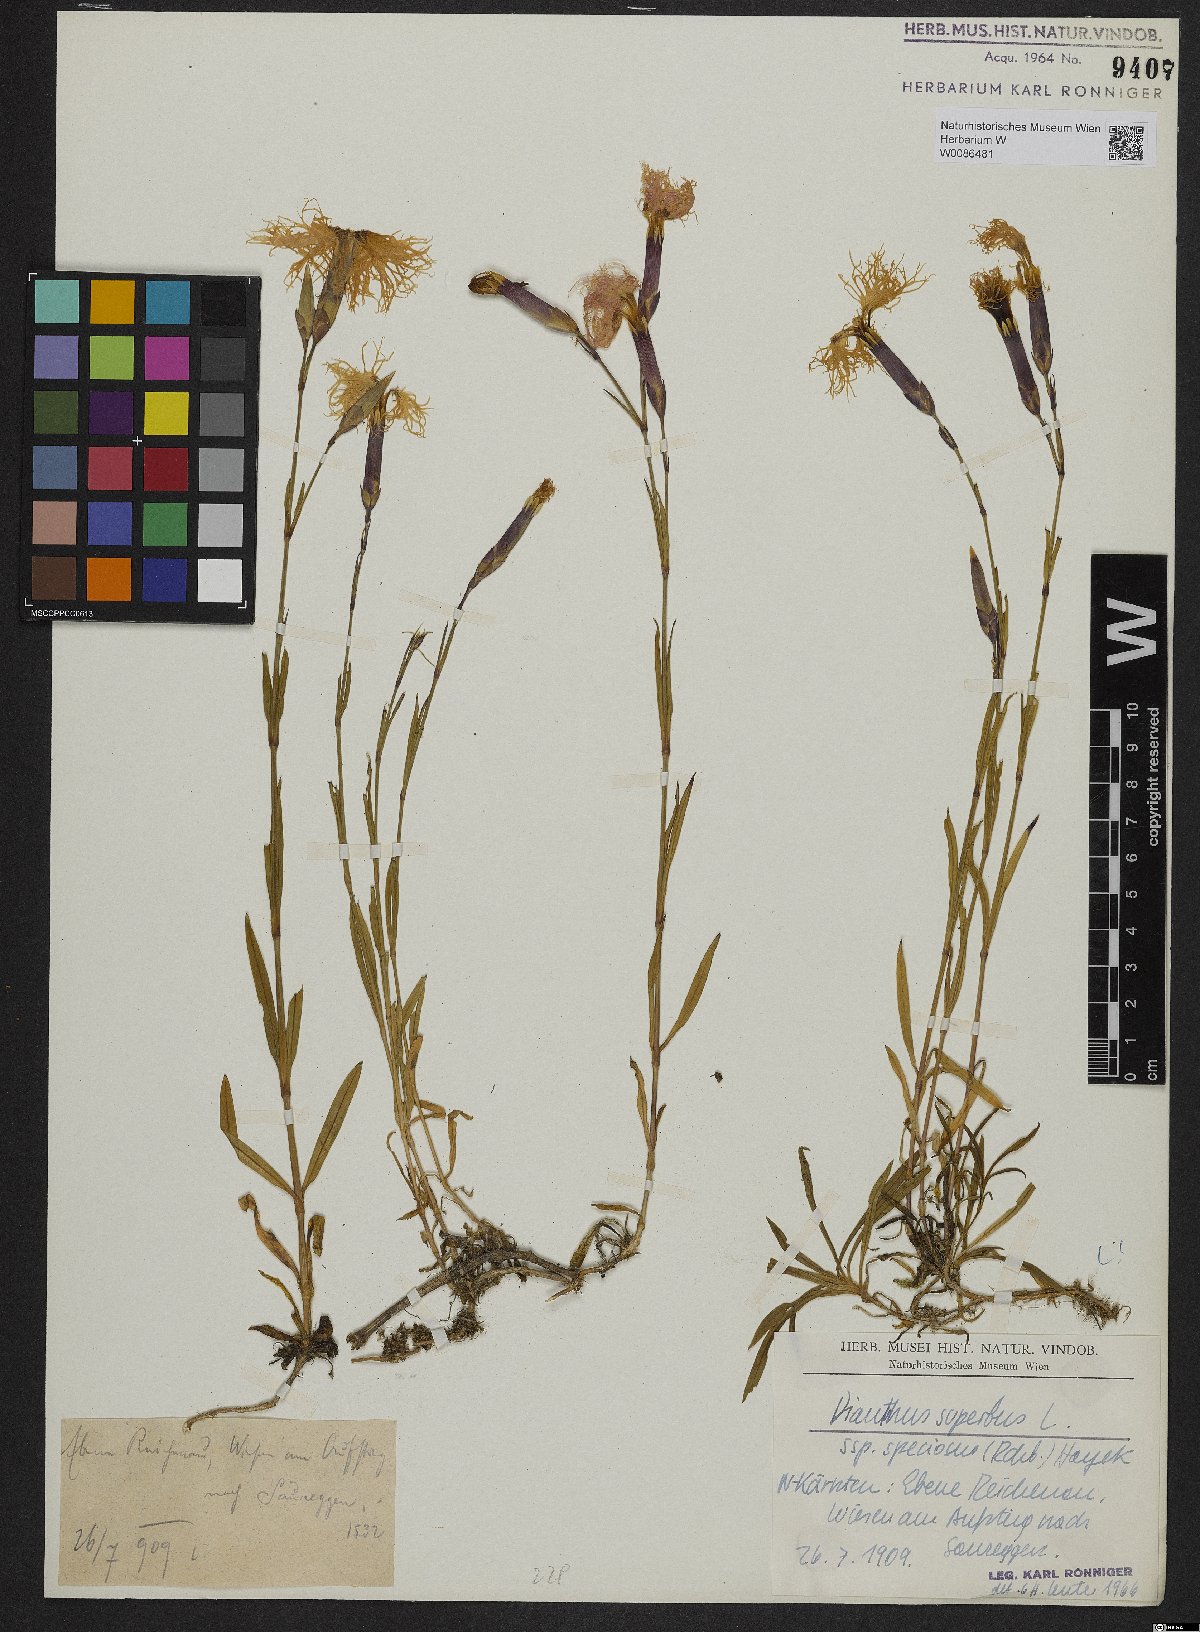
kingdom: Plantae
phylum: Tracheophyta
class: Magnoliopsida
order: Caryophyllales
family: Caryophyllaceae
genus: Dianthus
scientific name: Dianthus superbus
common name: Fringed pink
